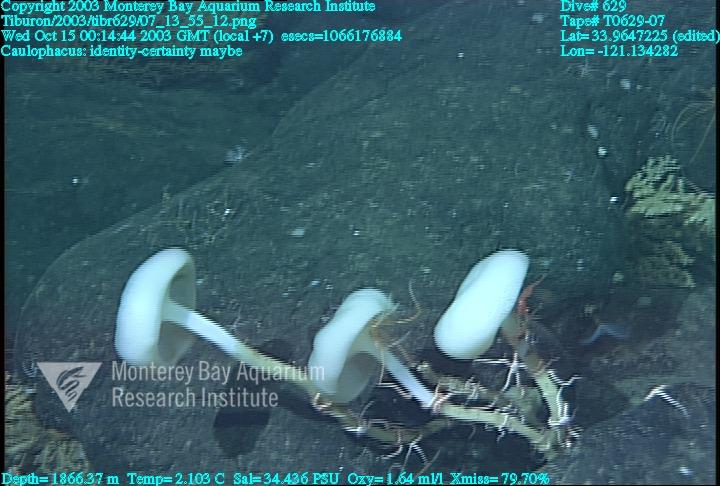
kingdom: Animalia
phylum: Porifera
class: Hexactinellida
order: Lyssacinosida
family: Rossellidae
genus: Caulophacus
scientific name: Caulophacus
